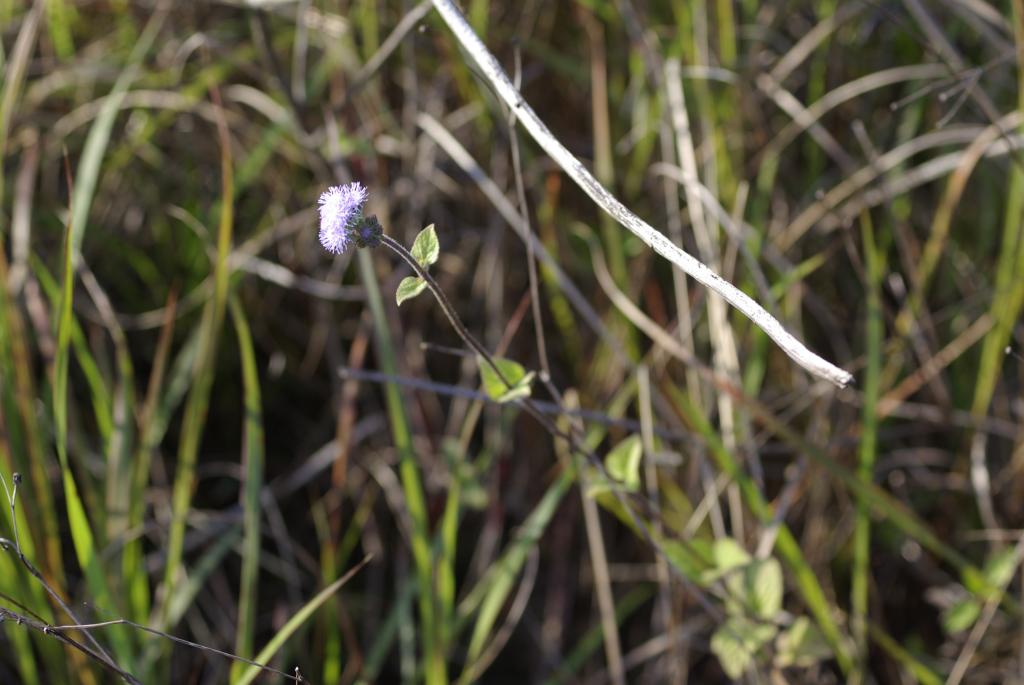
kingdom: Plantae
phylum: Tracheophyta
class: Magnoliopsida
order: Asterales
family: Asteraceae
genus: Ageratum
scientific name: Ageratum houstonianum
